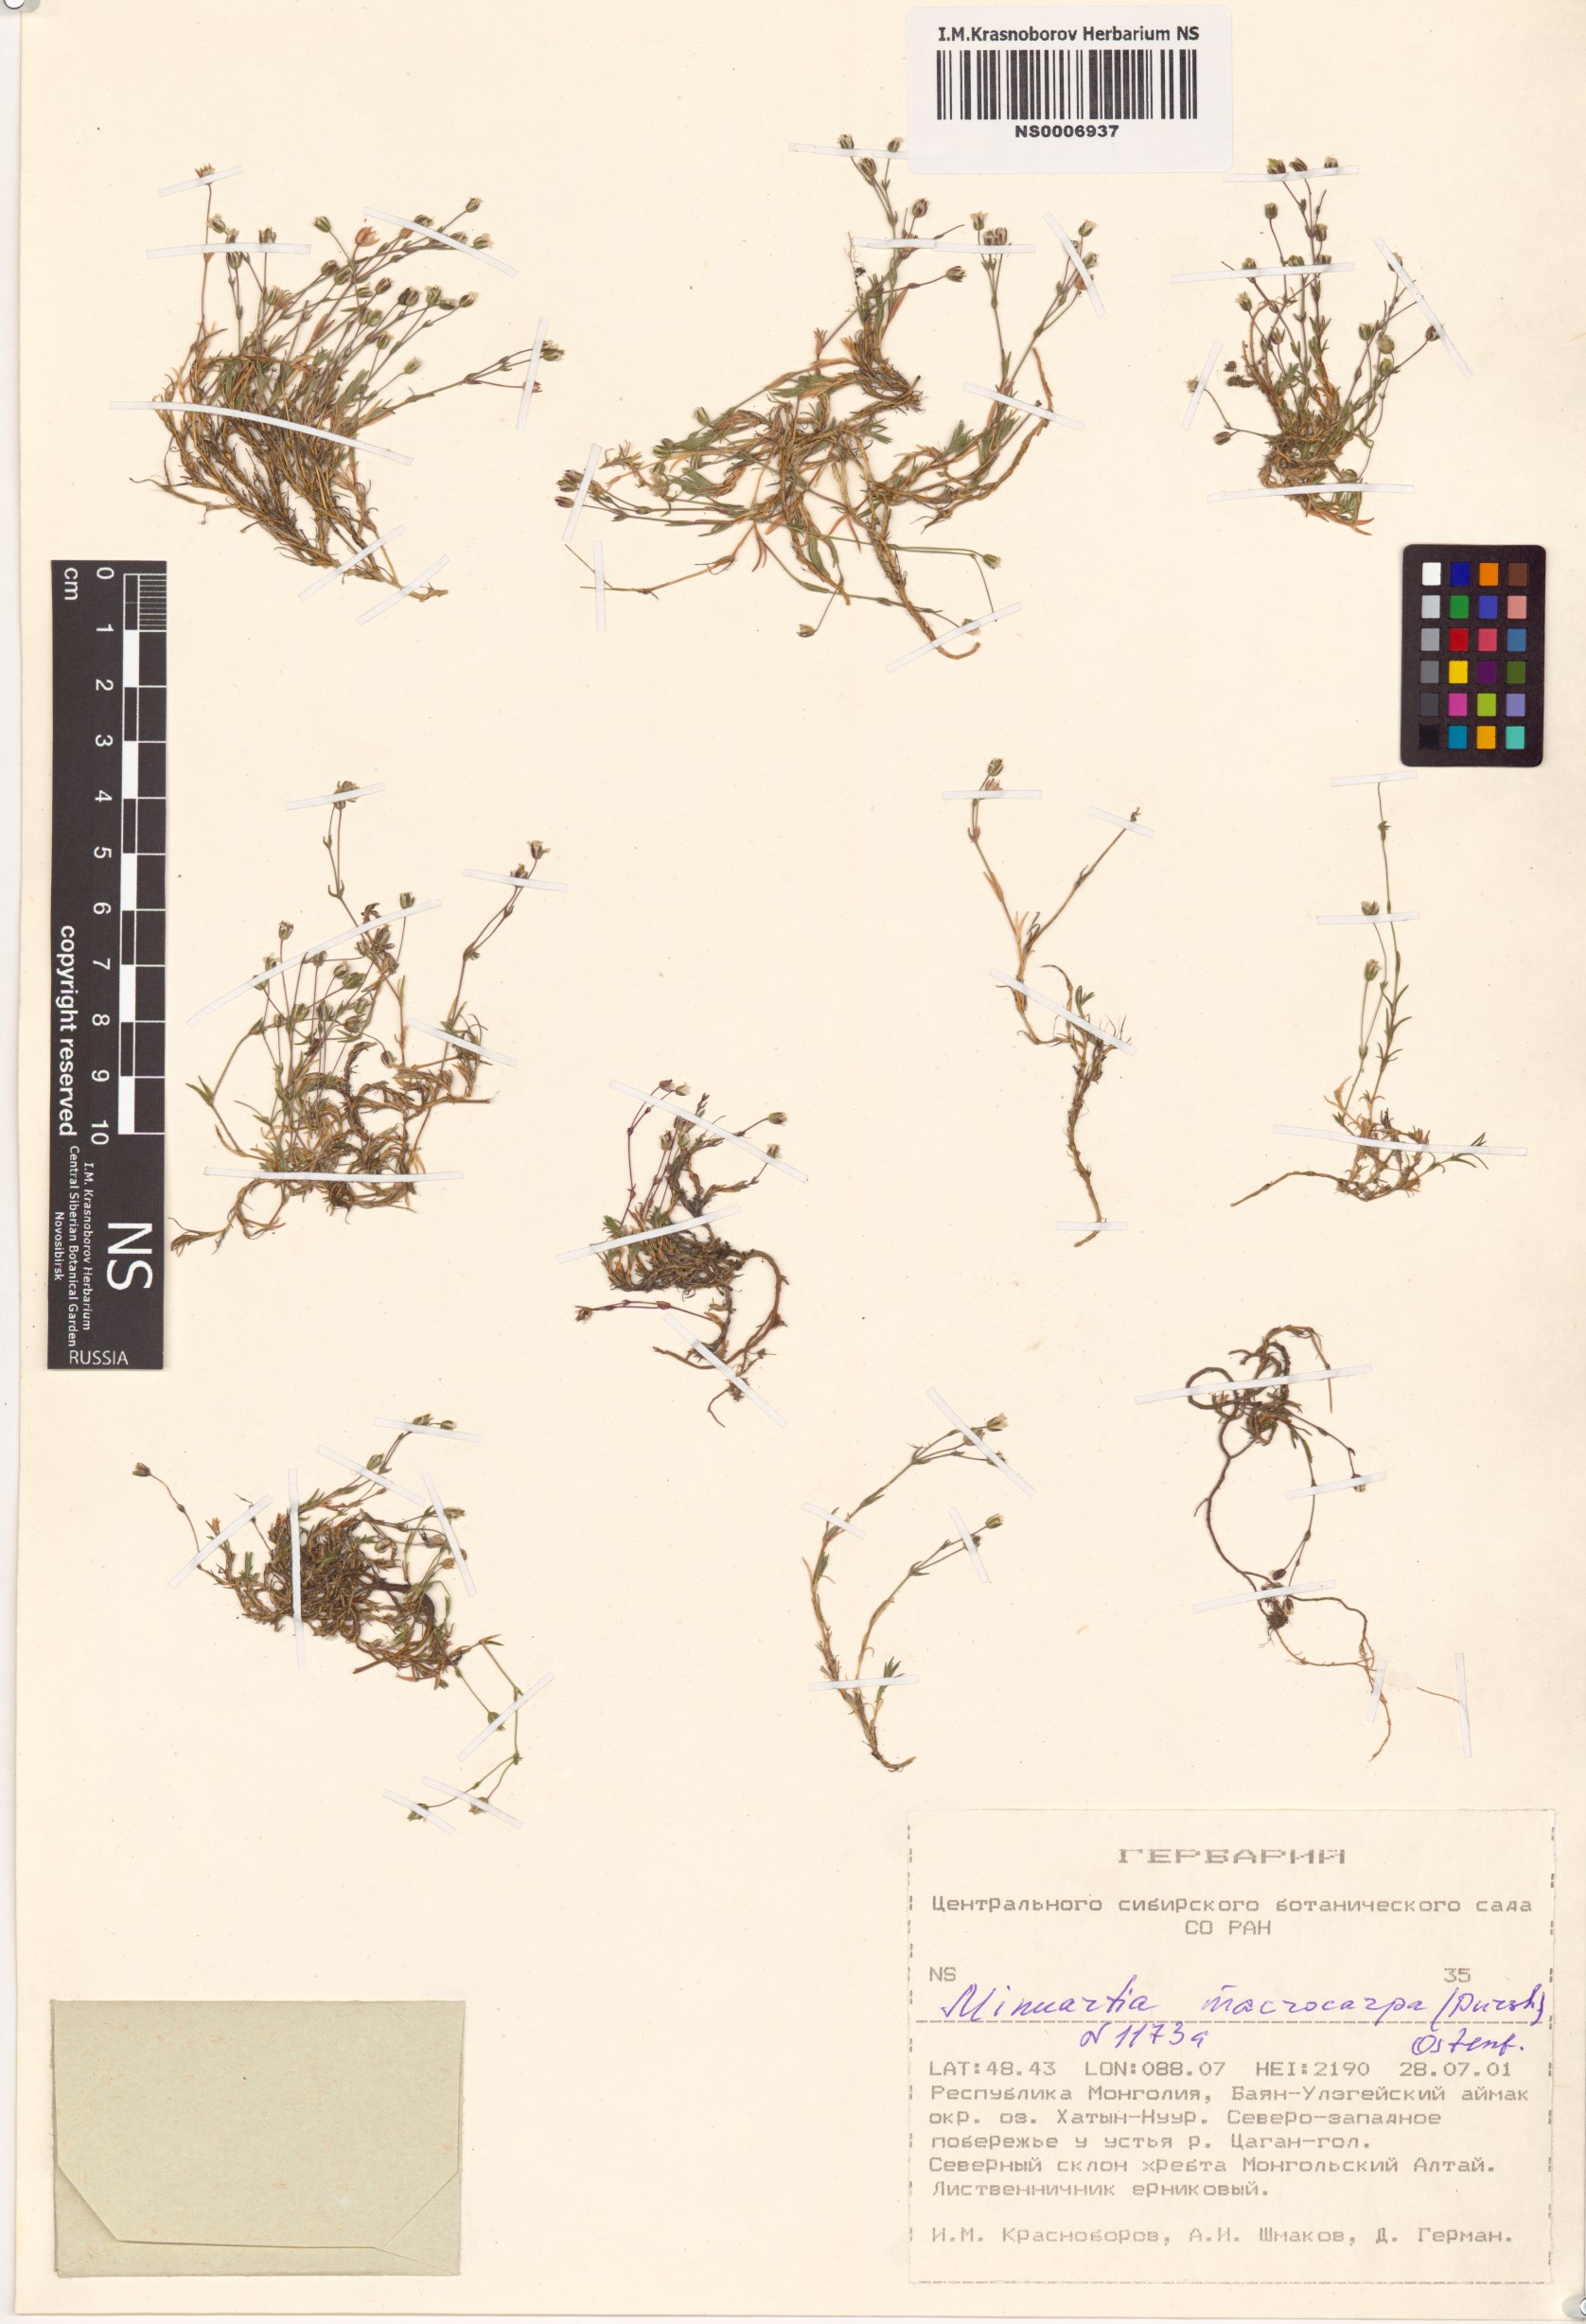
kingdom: Plantae
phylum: Tracheophyta
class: Magnoliopsida
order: Caryophyllales
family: Caryophyllaceae
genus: Pseudocherleria
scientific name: Pseudocherleria macrocarpa
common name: Large-fruit sandwort
